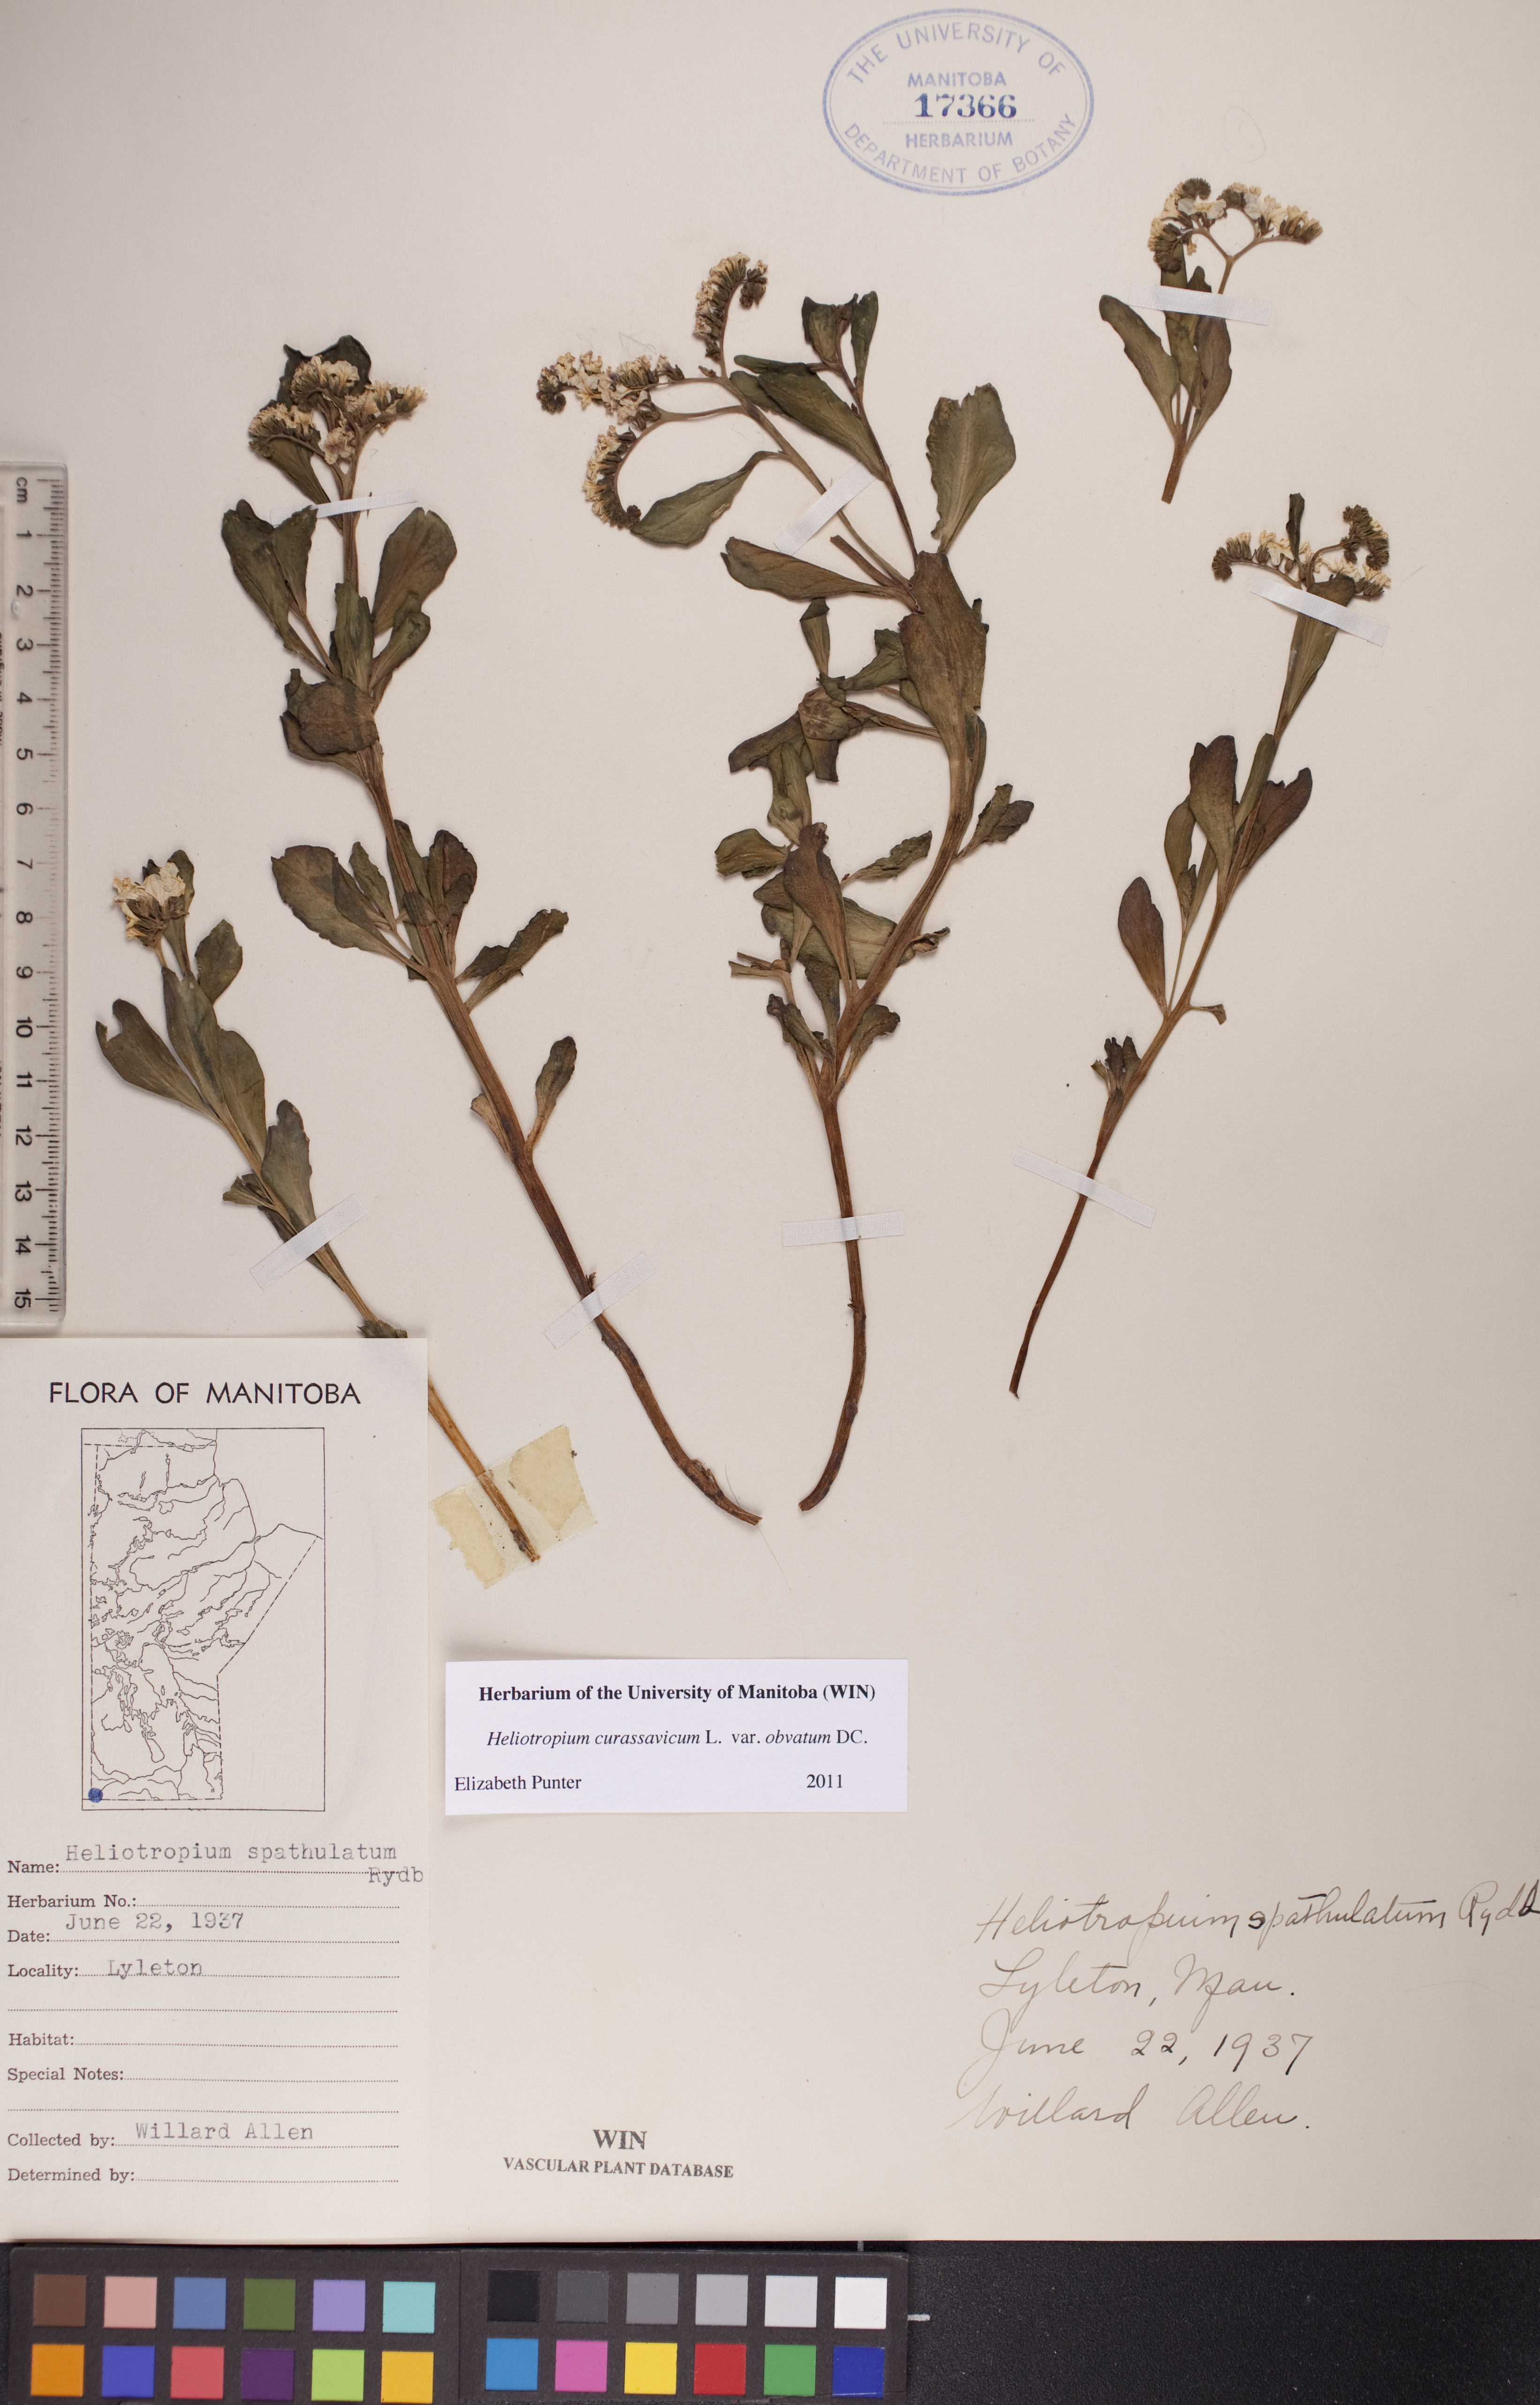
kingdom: Plantae
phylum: Tracheophyta
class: Magnoliopsida
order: Boraginales
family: Heliotropiaceae
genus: Heliotropium
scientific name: Heliotropium curassavicum
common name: Seaside heliotrope
